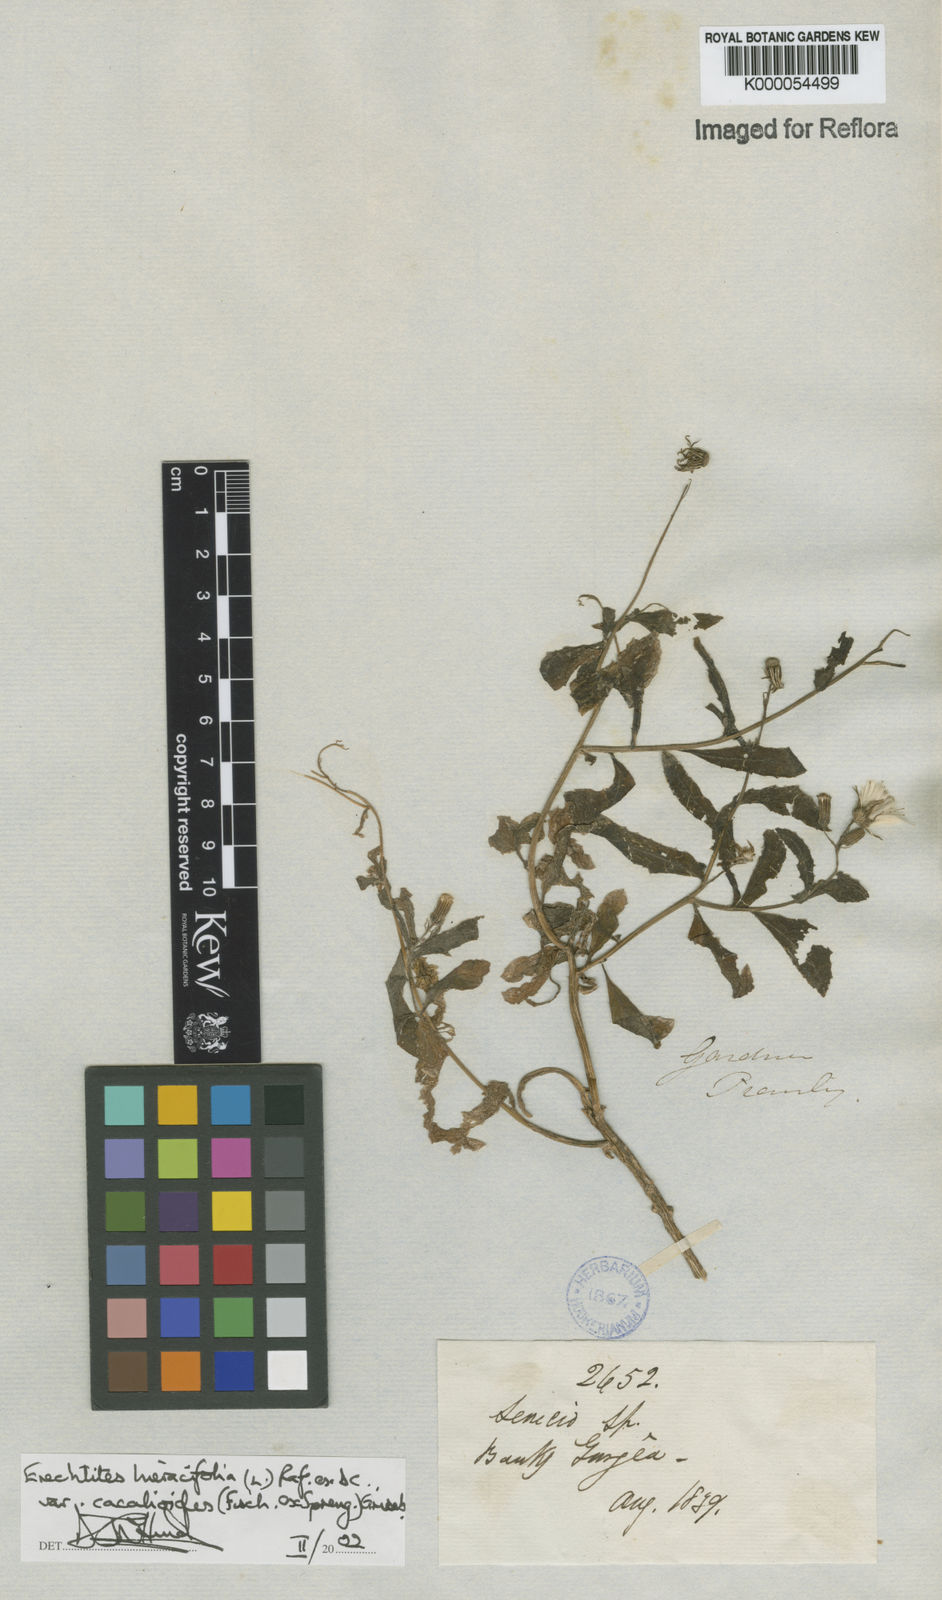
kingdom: Plantae
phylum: Tracheophyta
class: Magnoliopsida
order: Asterales
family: Asteraceae
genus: Erechtites
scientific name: Erechtites hieraciifolius
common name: American burnweed
